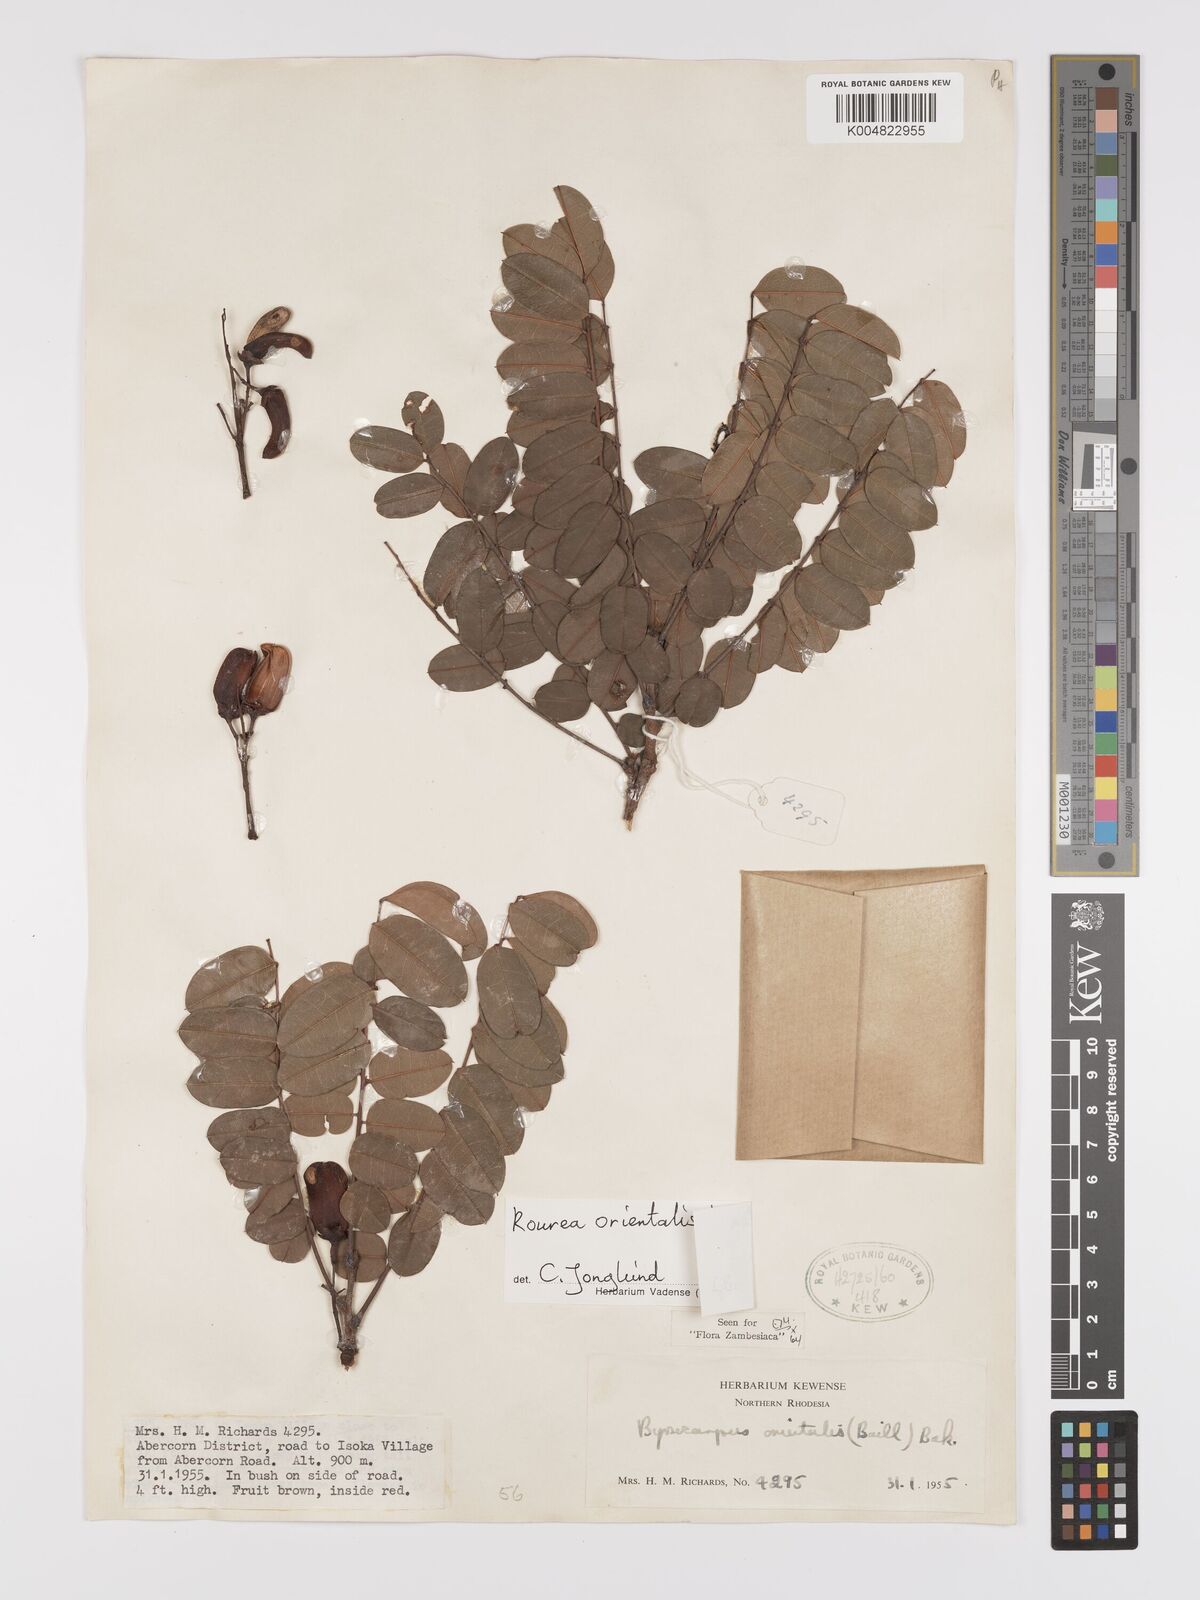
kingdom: Plantae
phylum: Tracheophyta
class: Magnoliopsida
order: Oxalidales
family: Connaraceae
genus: Rourea
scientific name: Rourea orientalis
